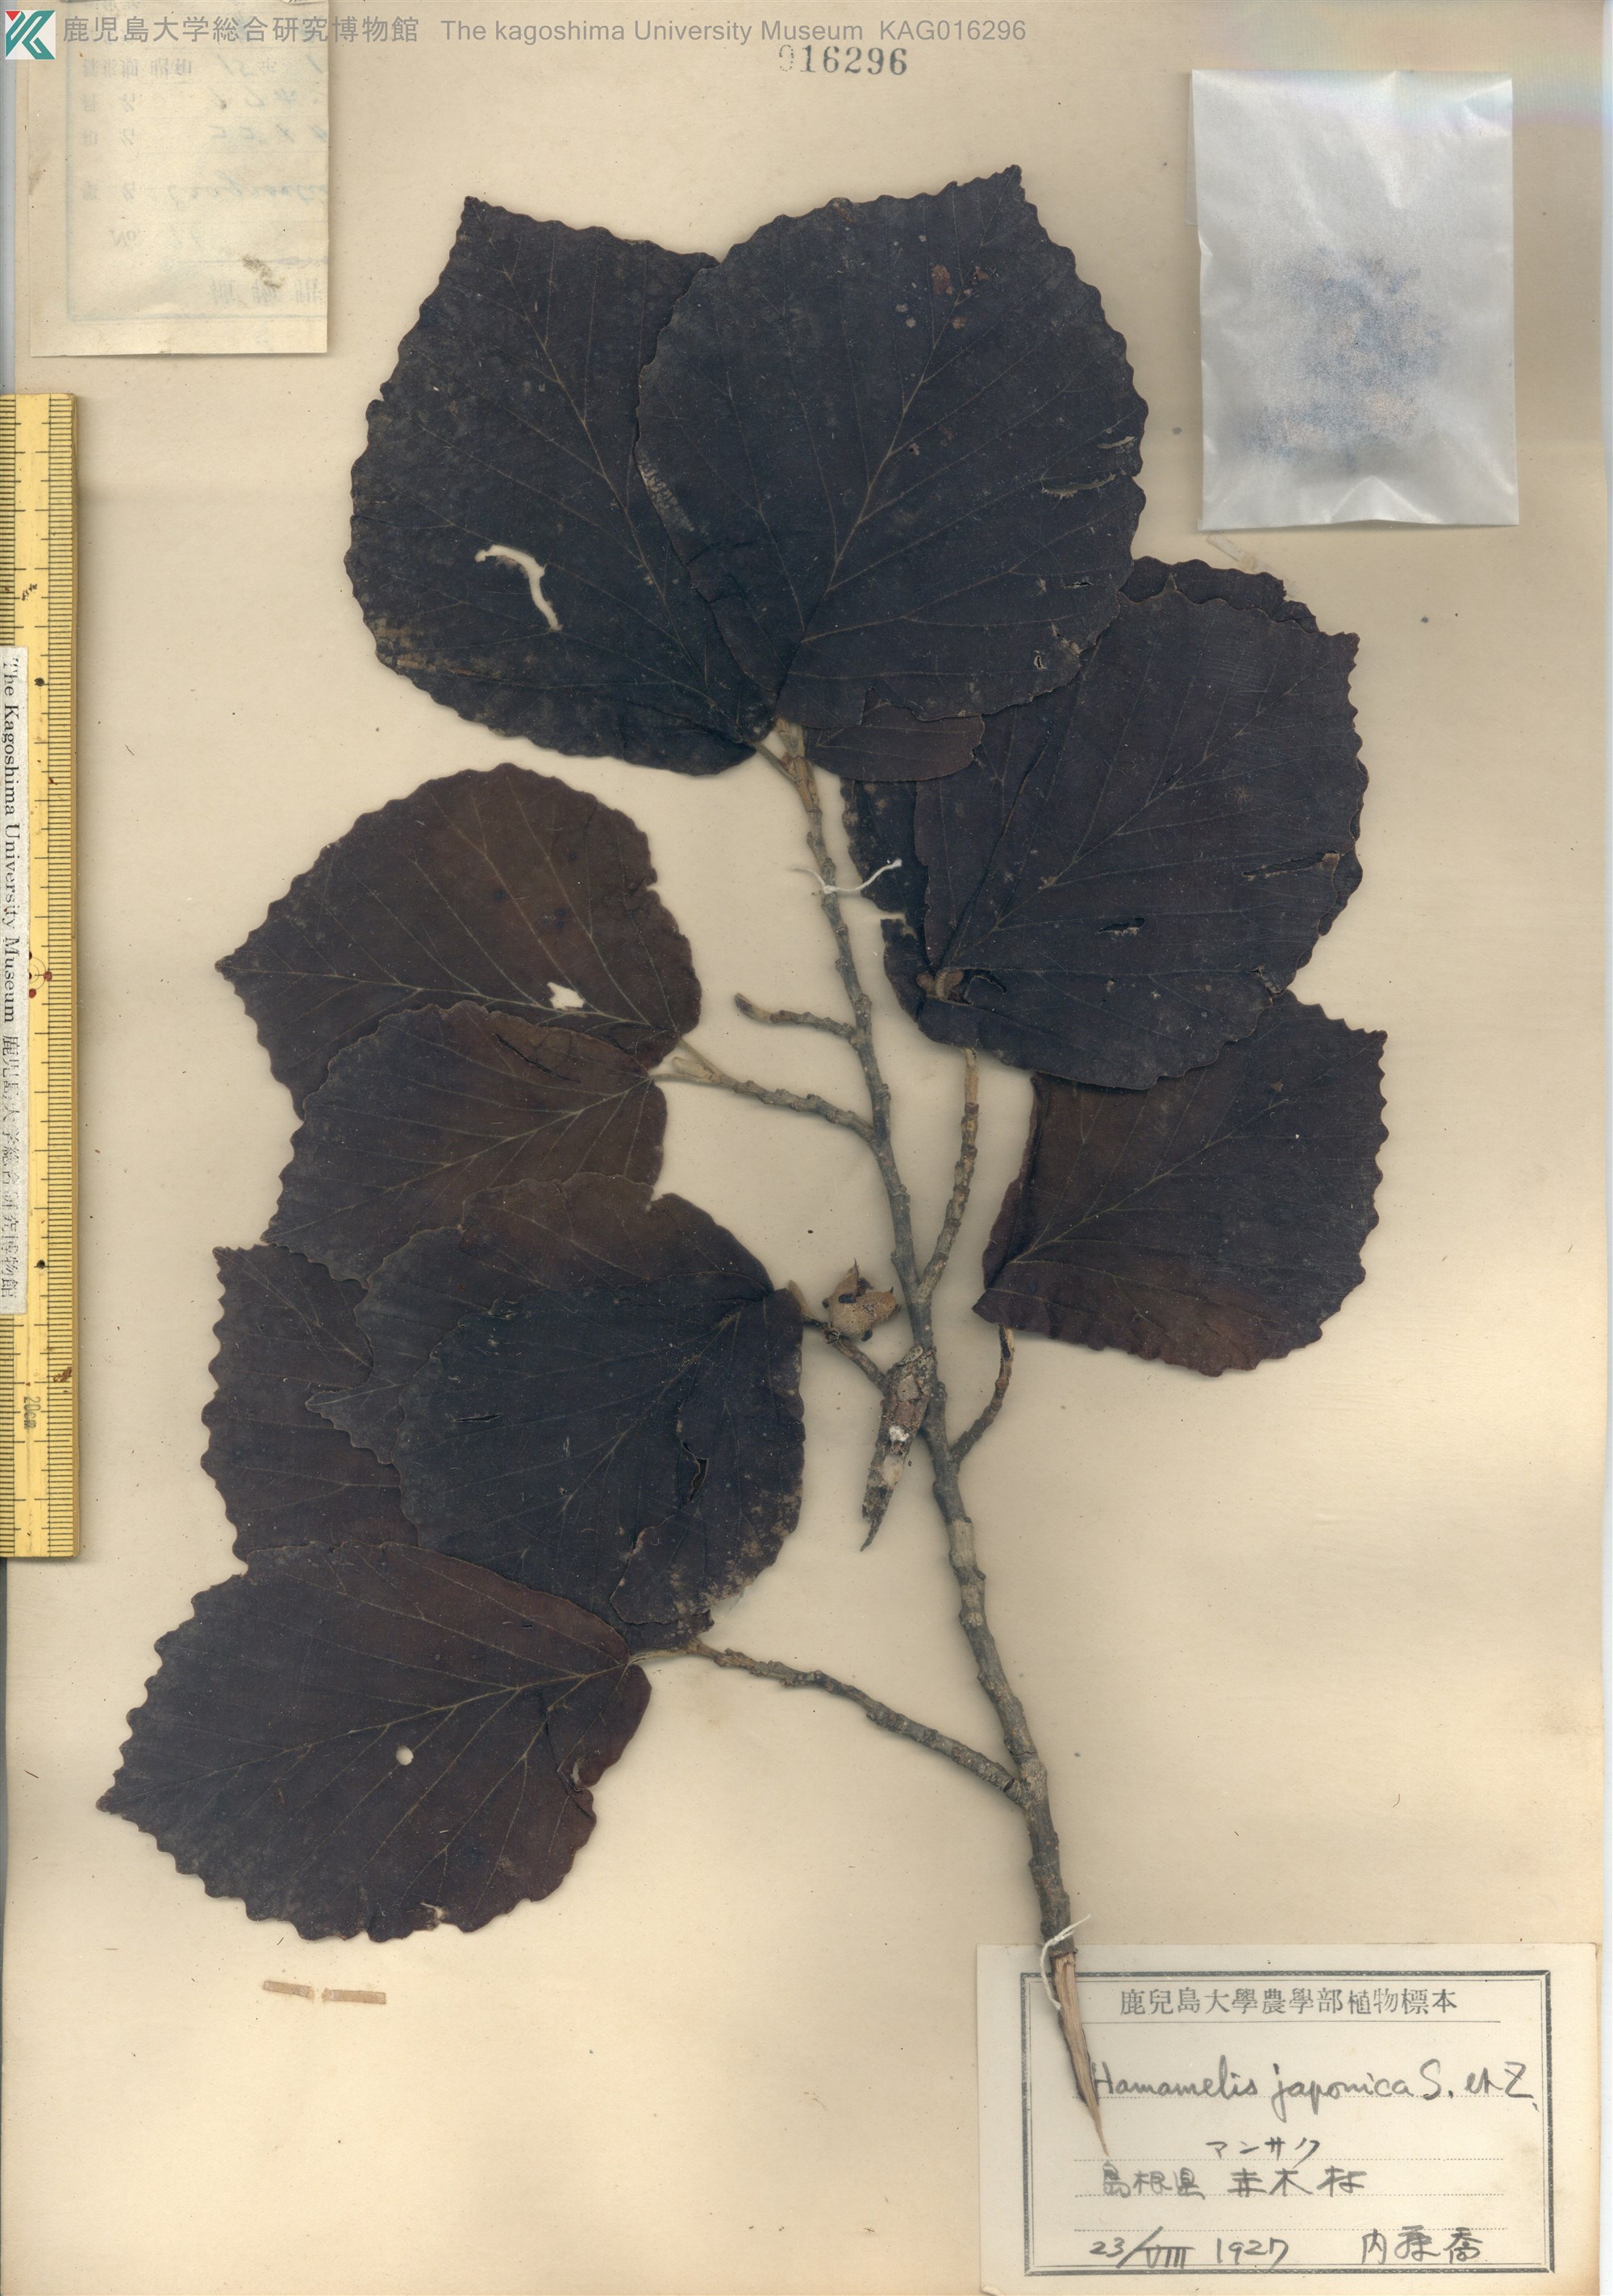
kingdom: Plantae
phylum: Tracheophyta
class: Magnoliopsida
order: Saxifragales
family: Hamamelidaceae
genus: Hamamelis
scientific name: Hamamelis japonica
